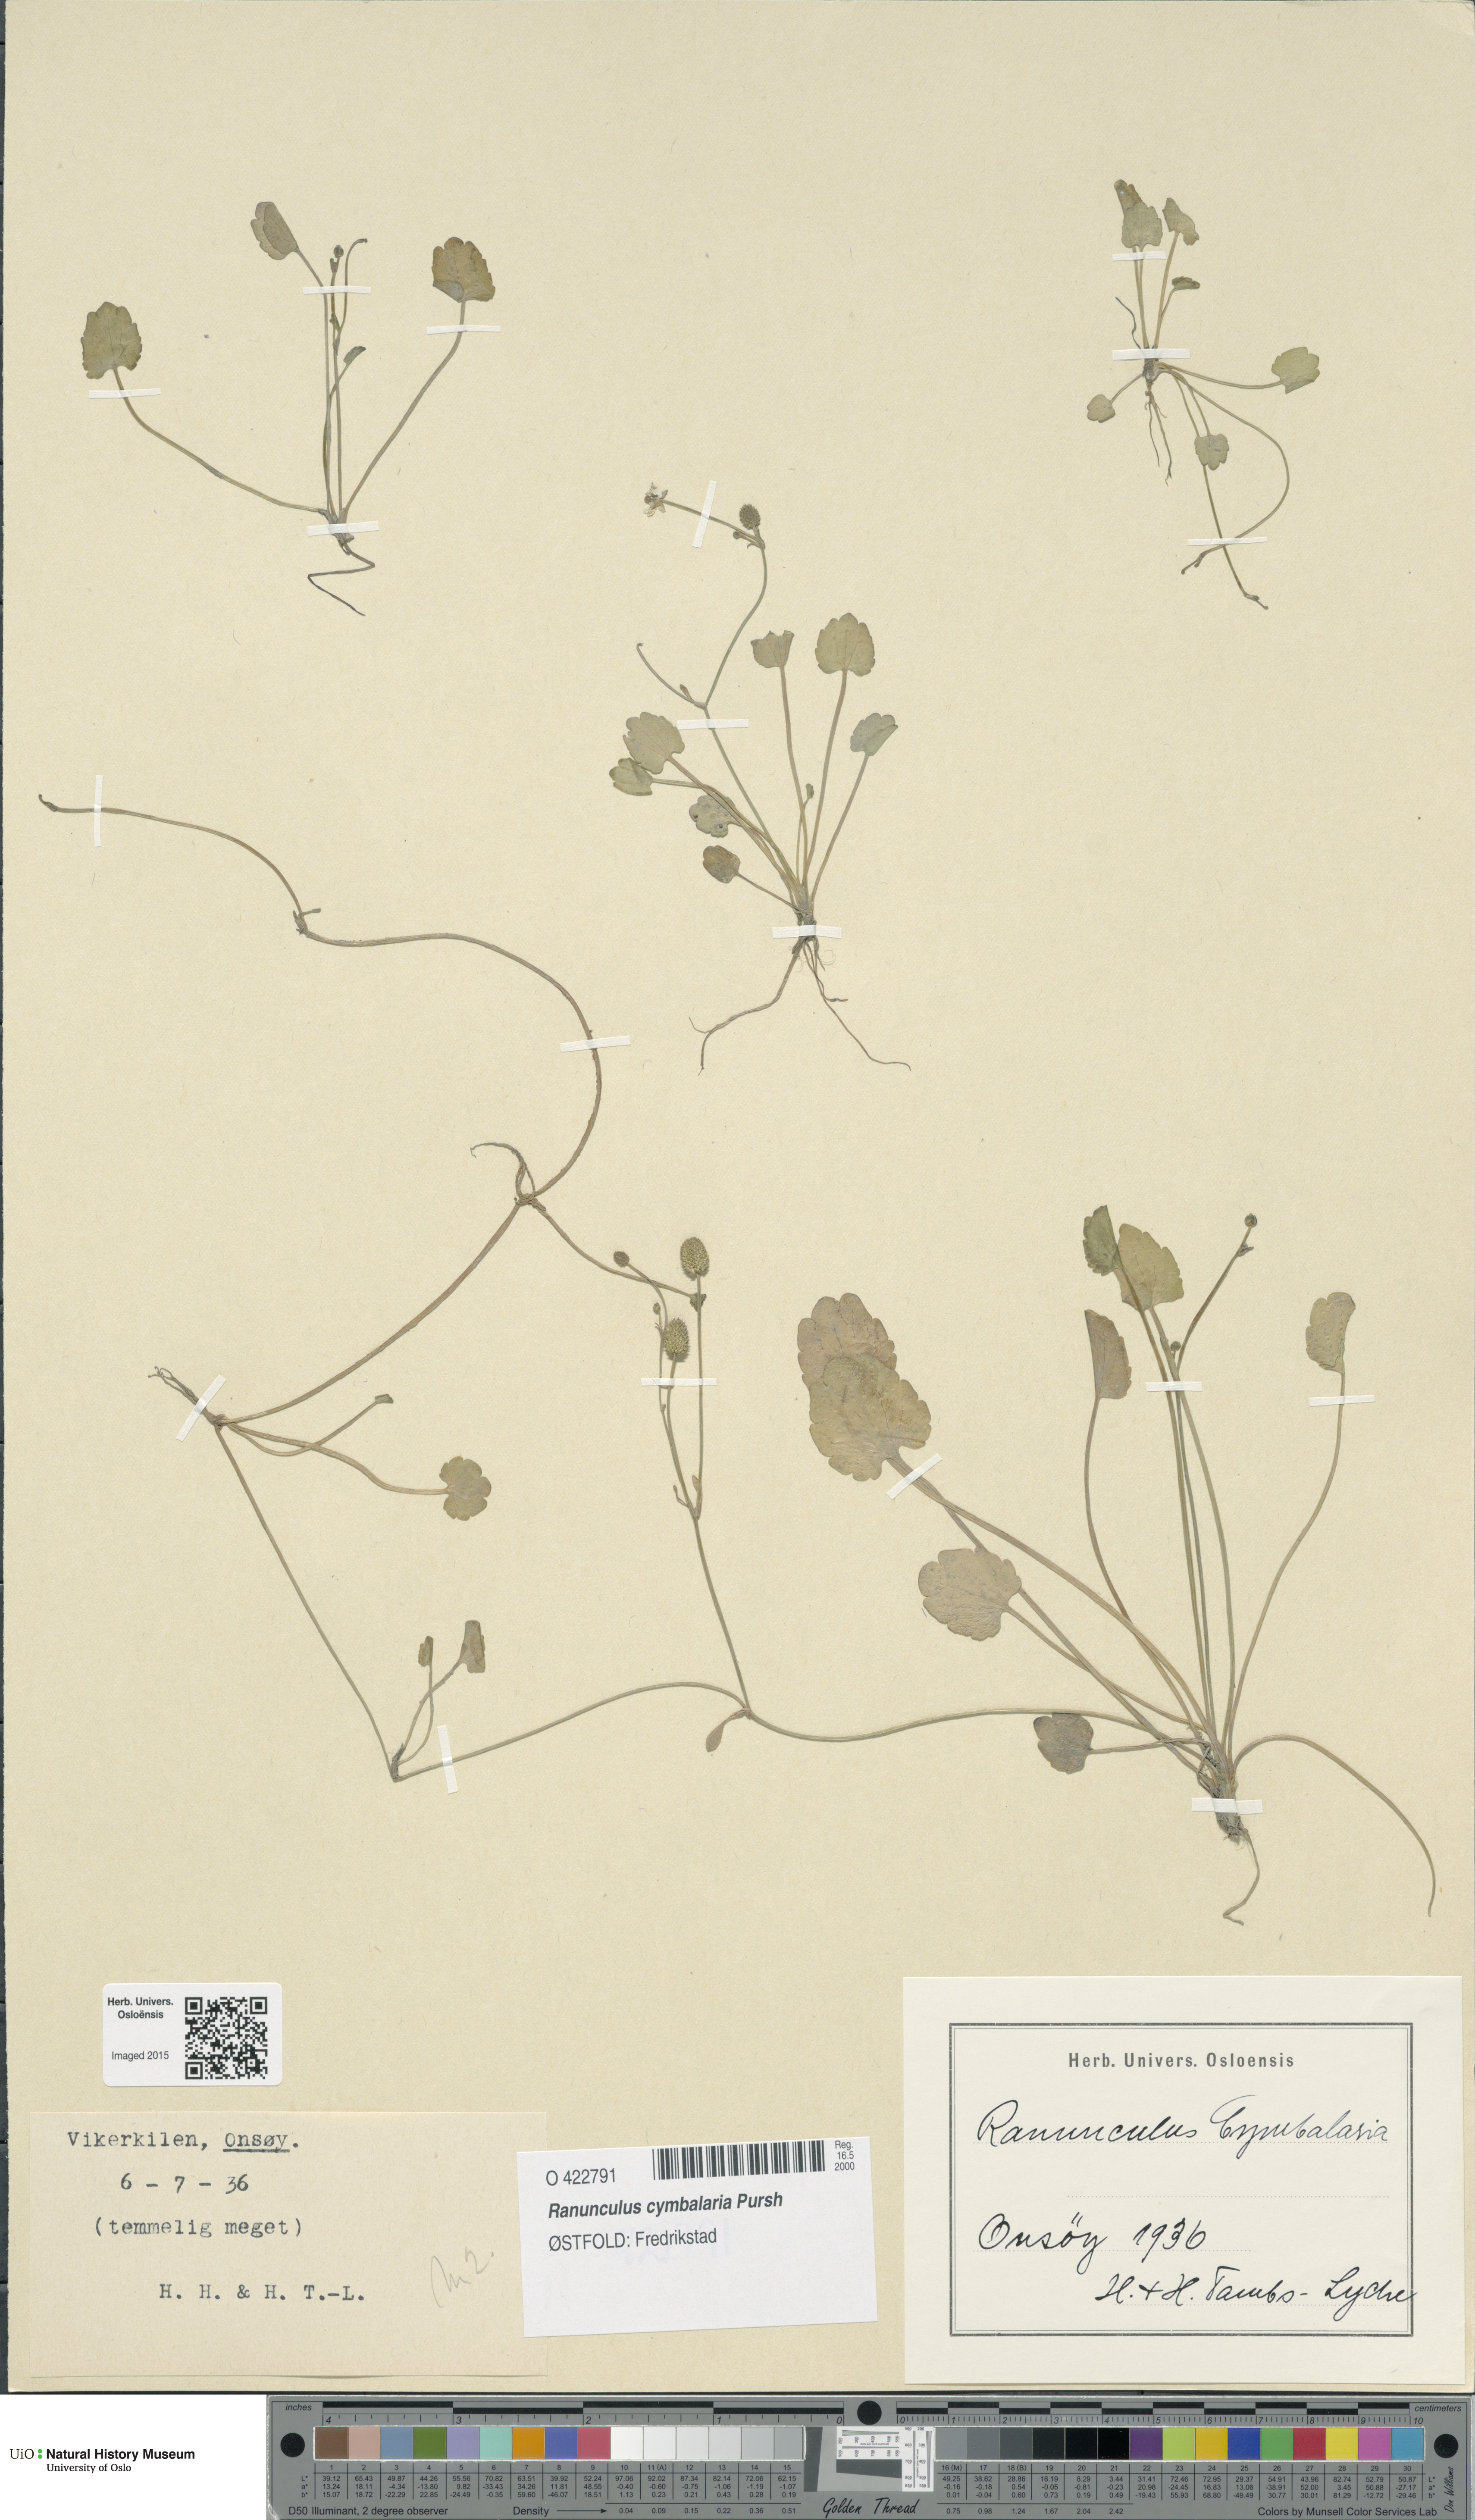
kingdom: Plantae
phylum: Tracheophyta
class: Magnoliopsida
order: Ranunculales
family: Ranunculaceae
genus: Halerpestes
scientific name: Halerpestes cymbalaria
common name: Seaside crowfoot
